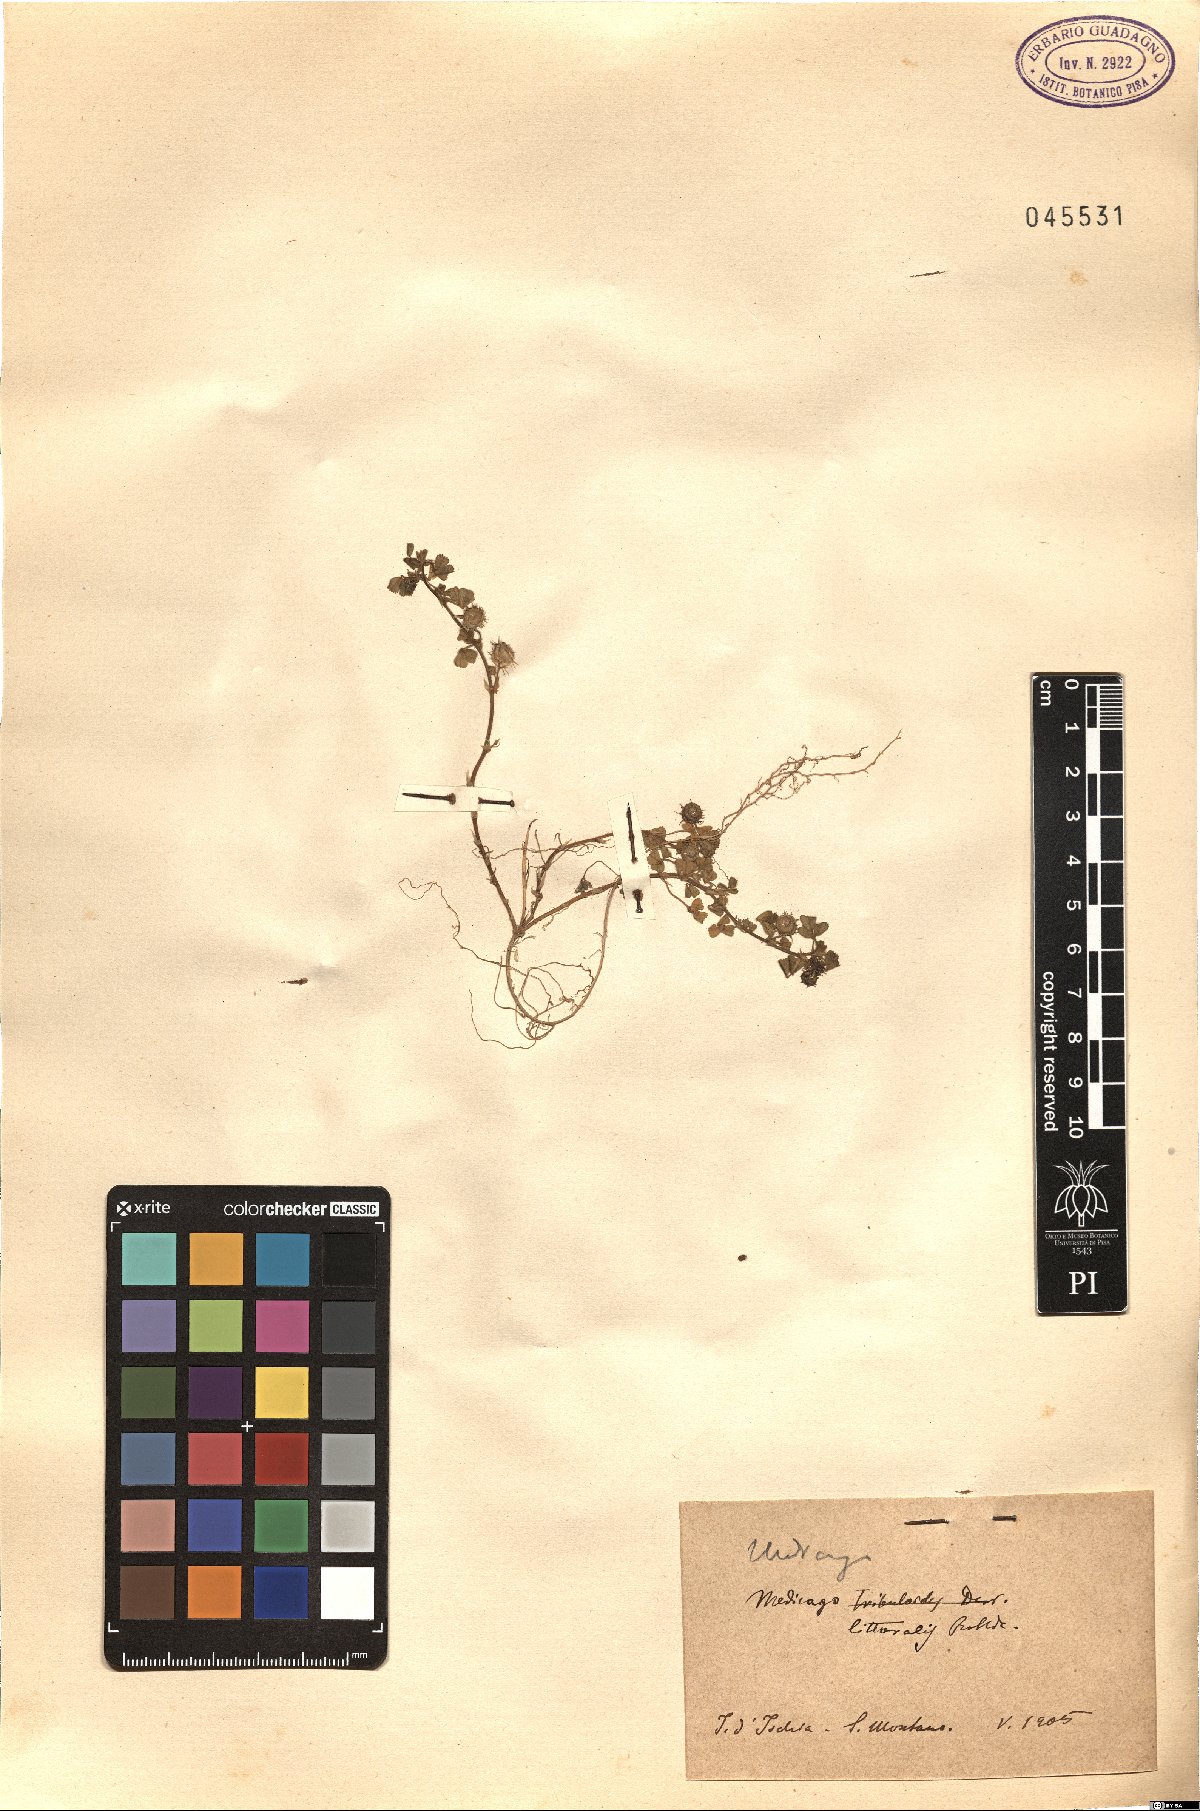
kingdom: Plantae
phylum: Tracheophyta
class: Magnoliopsida
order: Fabales
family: Fabaceae
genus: Medicago
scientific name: Medicago littoralis
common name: Shore medick
